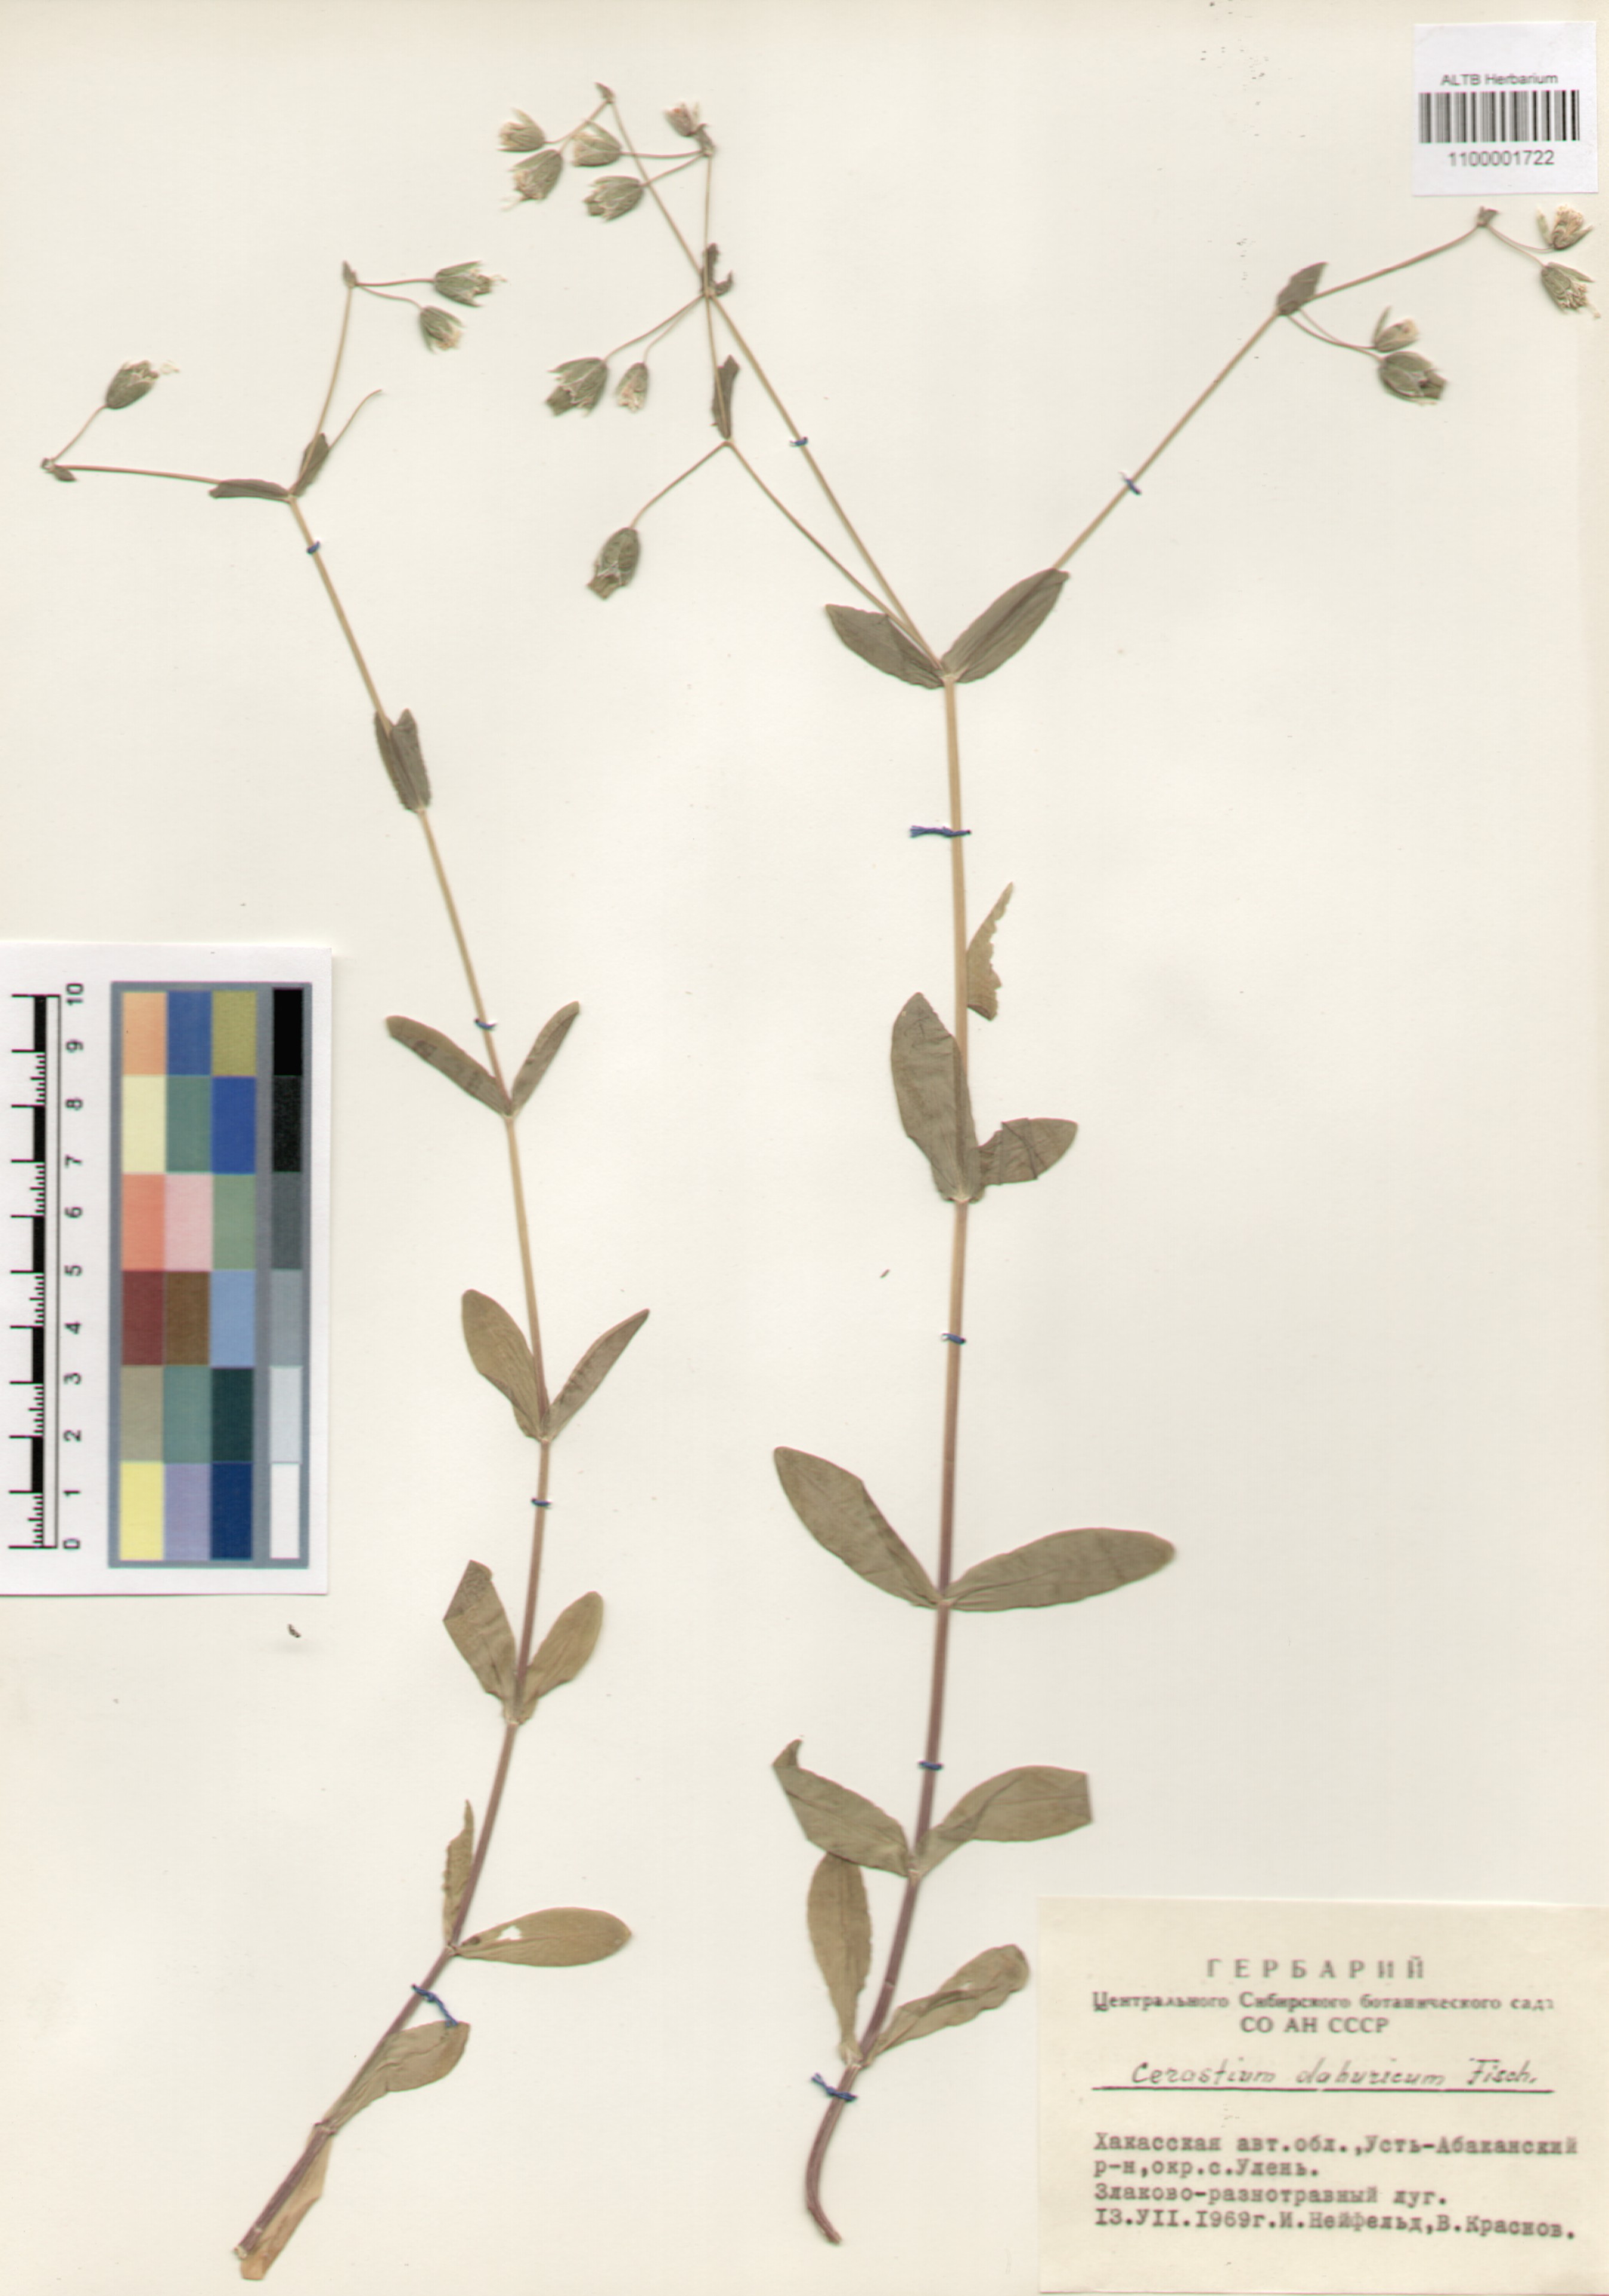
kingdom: Plantae
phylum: Tracheophyta
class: Magnoliopsida
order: Caryophyllales
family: Caryophyllaceae
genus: Dichodon
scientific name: Dichodon davuricum
